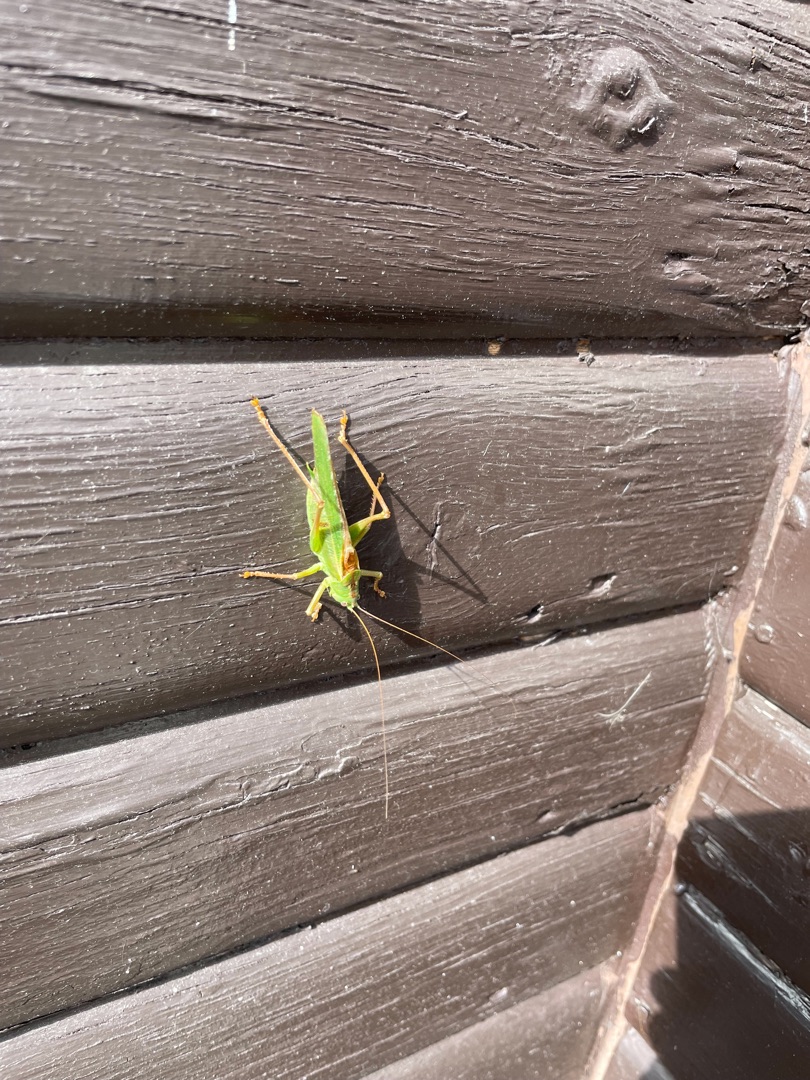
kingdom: Animalia
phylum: Arthropoda
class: Insecta
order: Orthoptera
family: Tettigoniidae
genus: Tettigonia
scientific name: Tettigonia viridissima
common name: Stor grøn løvgræshoppe
